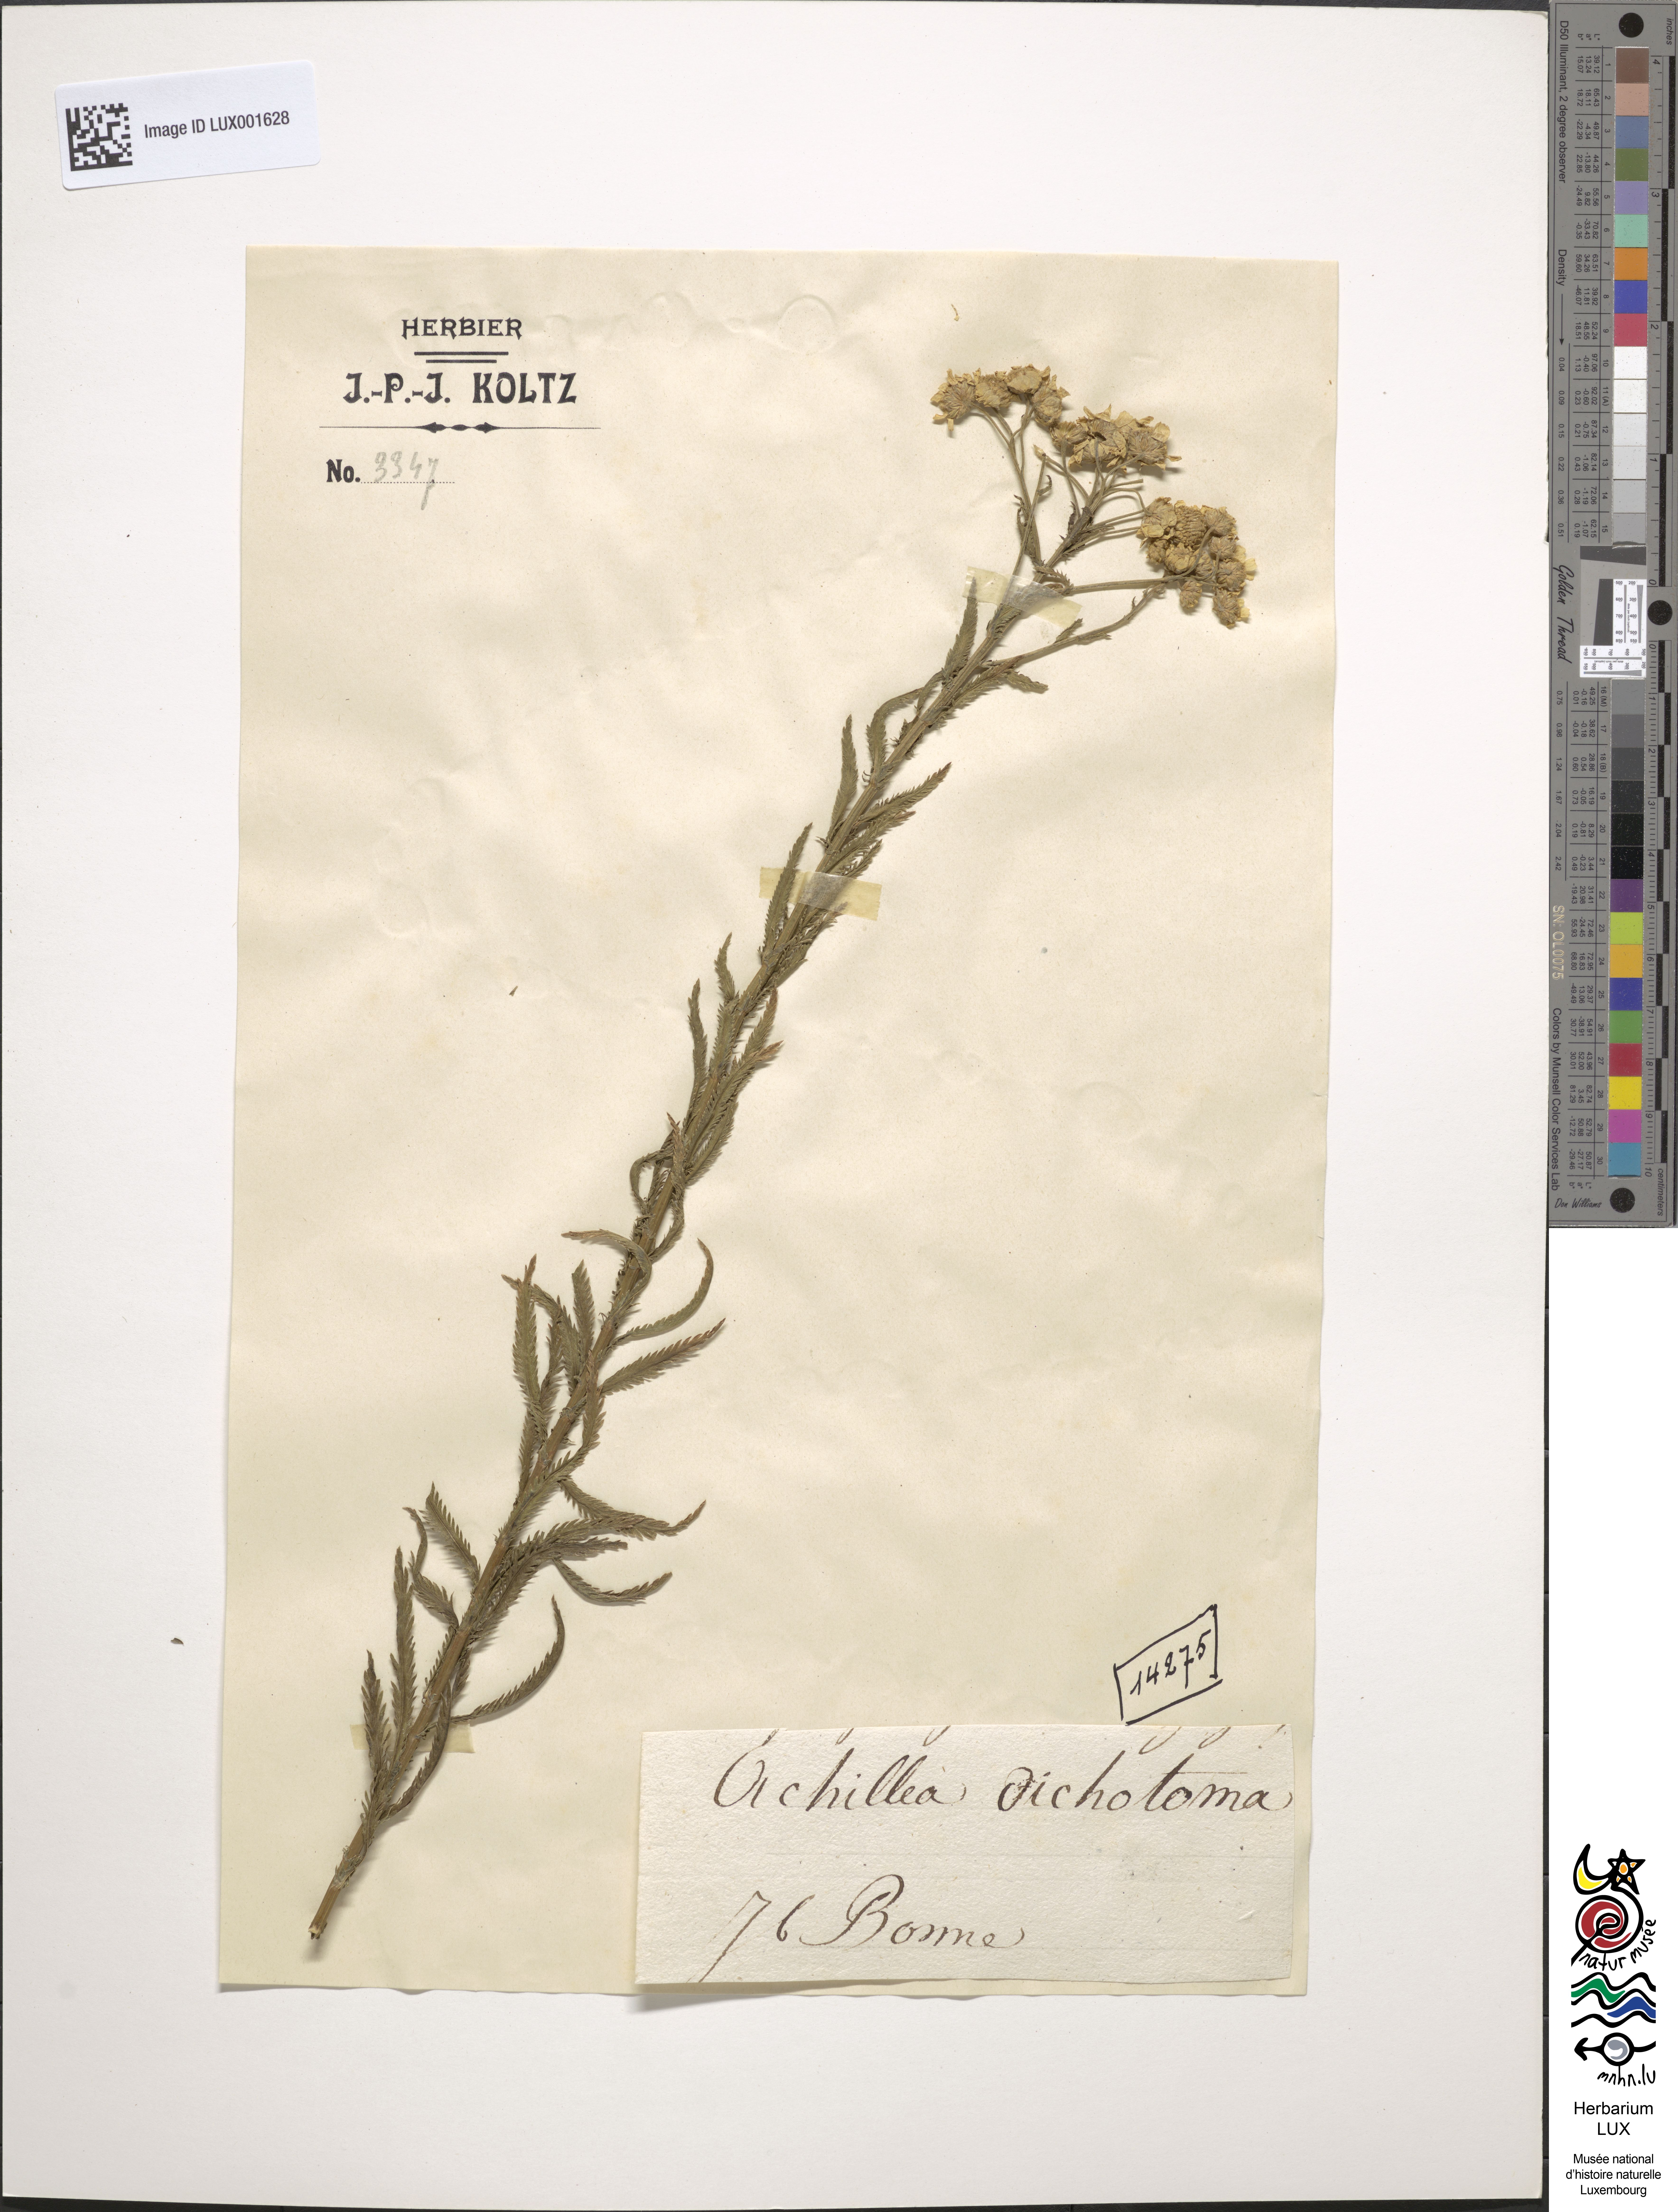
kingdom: Plantae
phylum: Tracheophyta
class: Magnoliopsida
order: Asterales
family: Asteraceae
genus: Achillea
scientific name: Achillea
